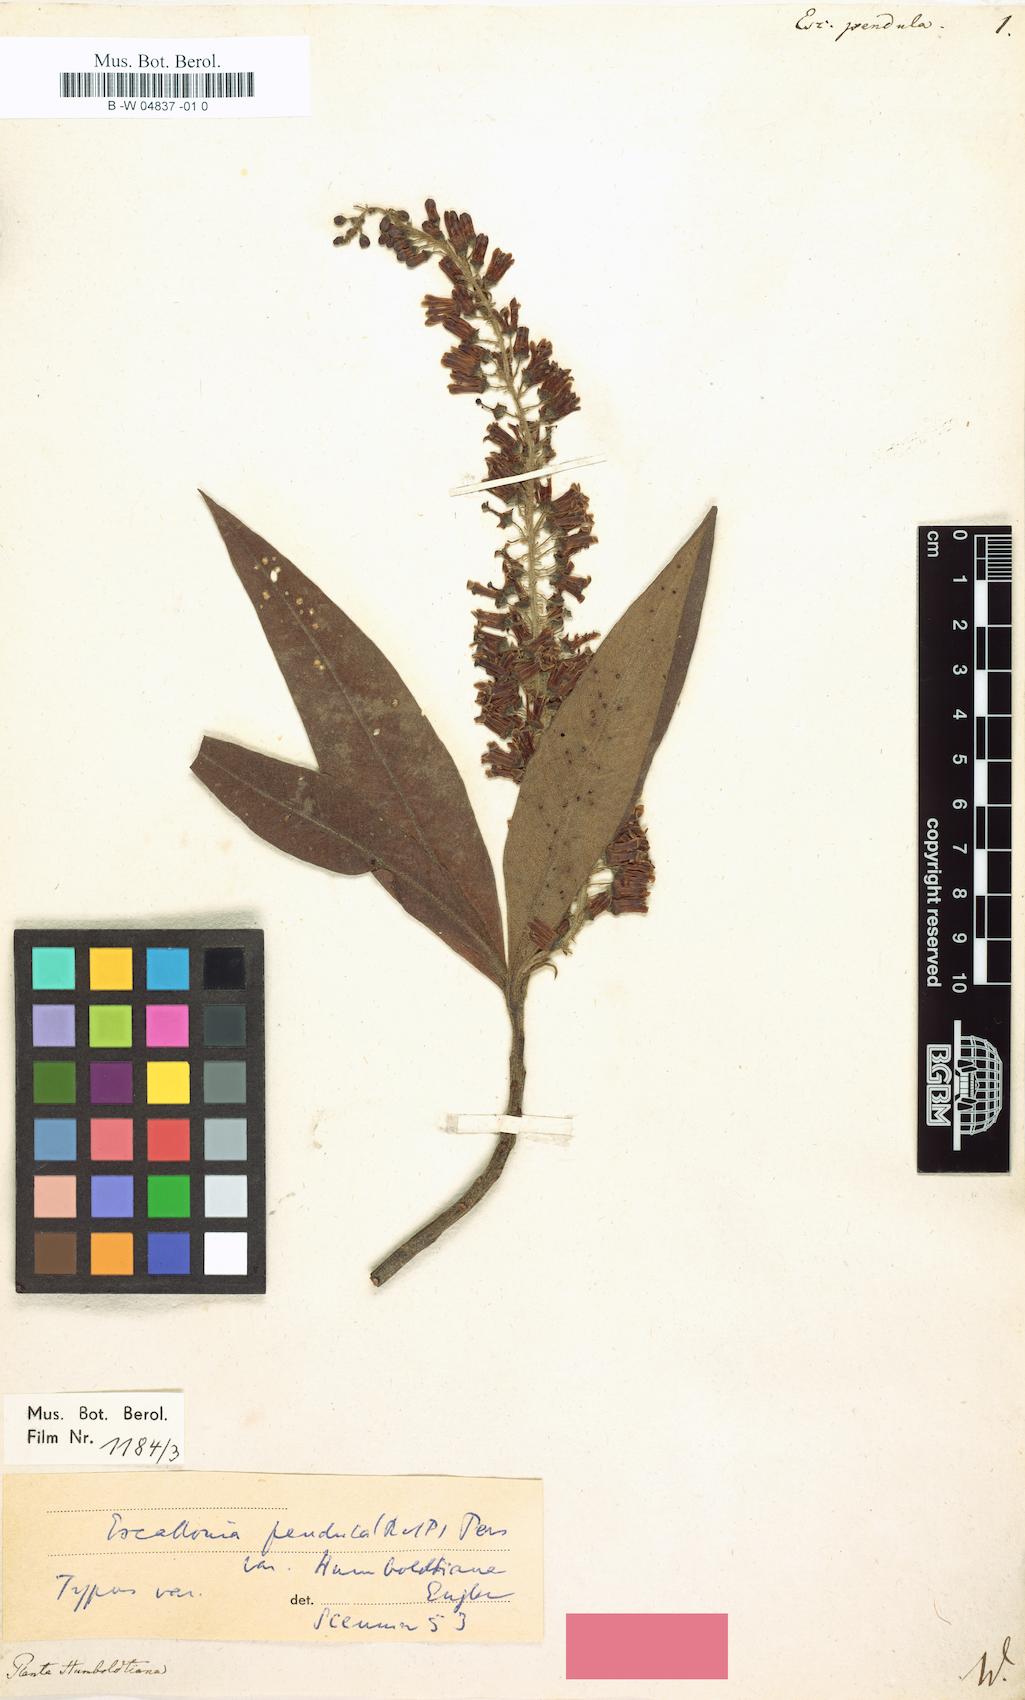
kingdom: Plantae
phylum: Tracheophyta
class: Magnoliopsida
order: Escalloniales
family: Escalloniaceae
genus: Escallonia
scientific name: Escallonia pendula
